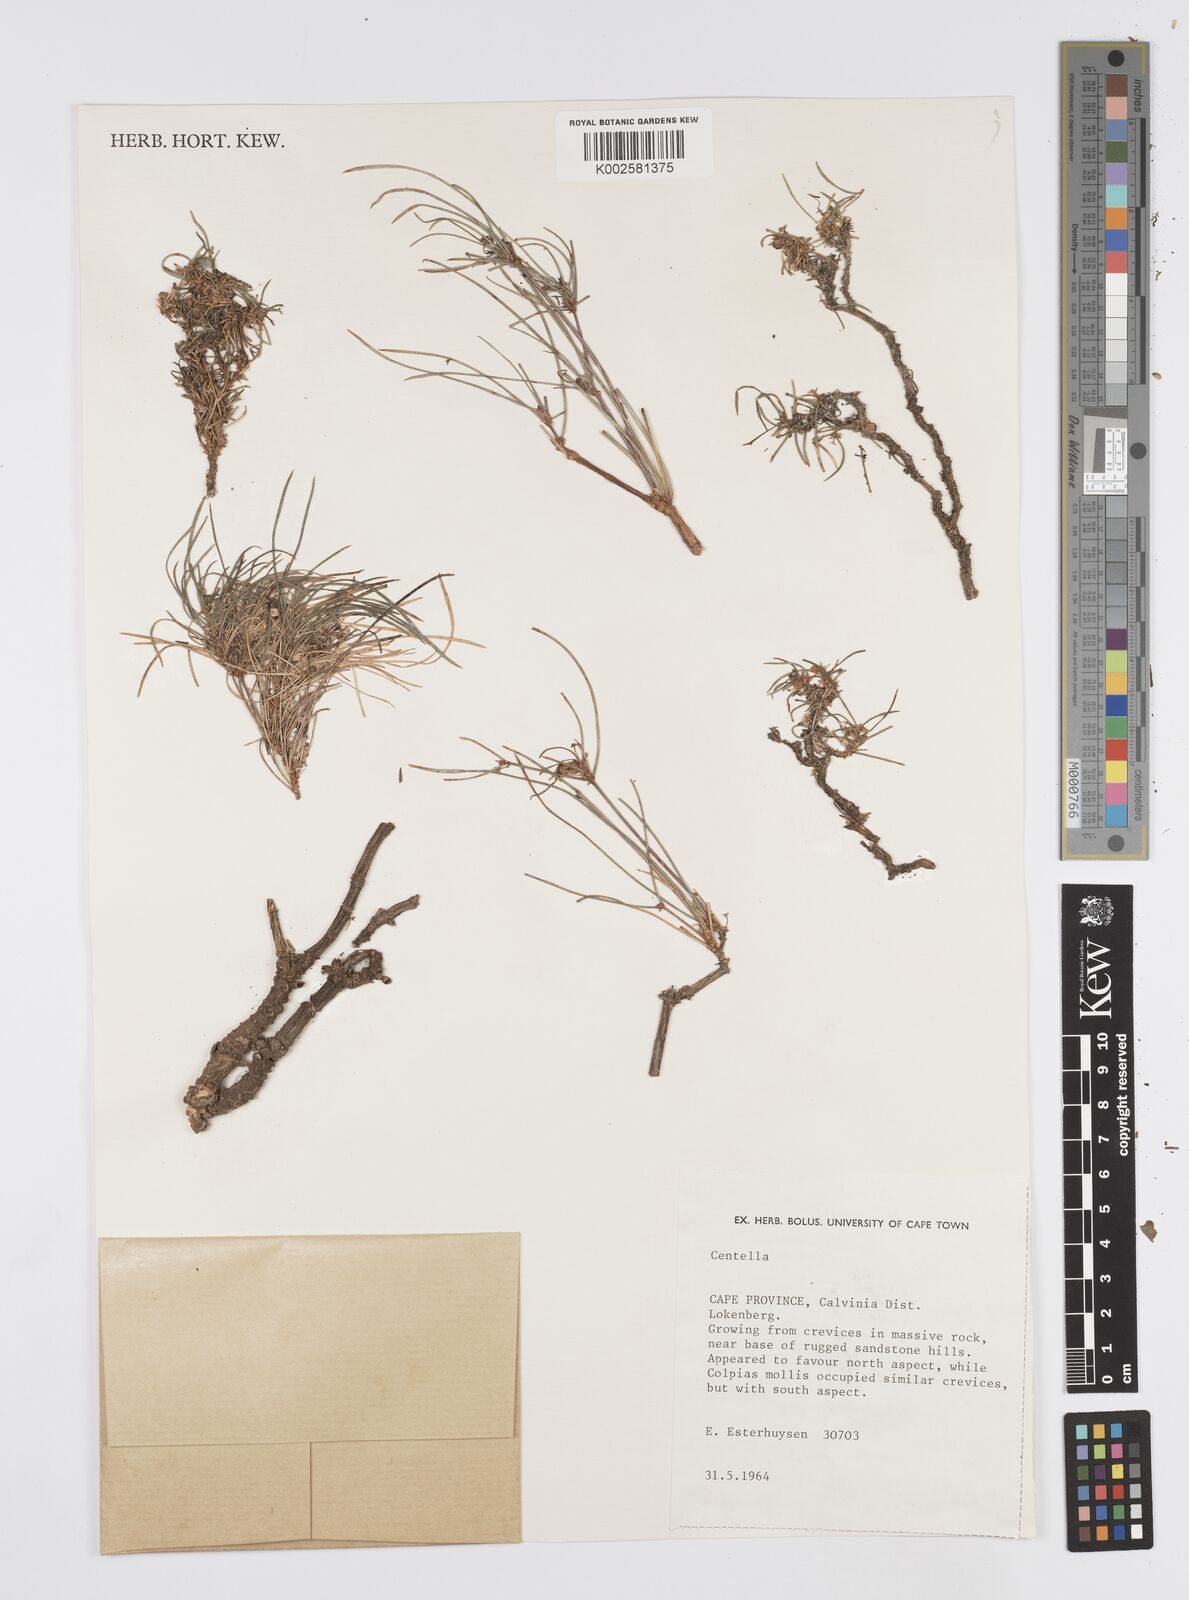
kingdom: Plantae
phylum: Tracheophyta
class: Magnoliopsida
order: Apiales
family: Apiaceae
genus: Centella
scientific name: Centella
